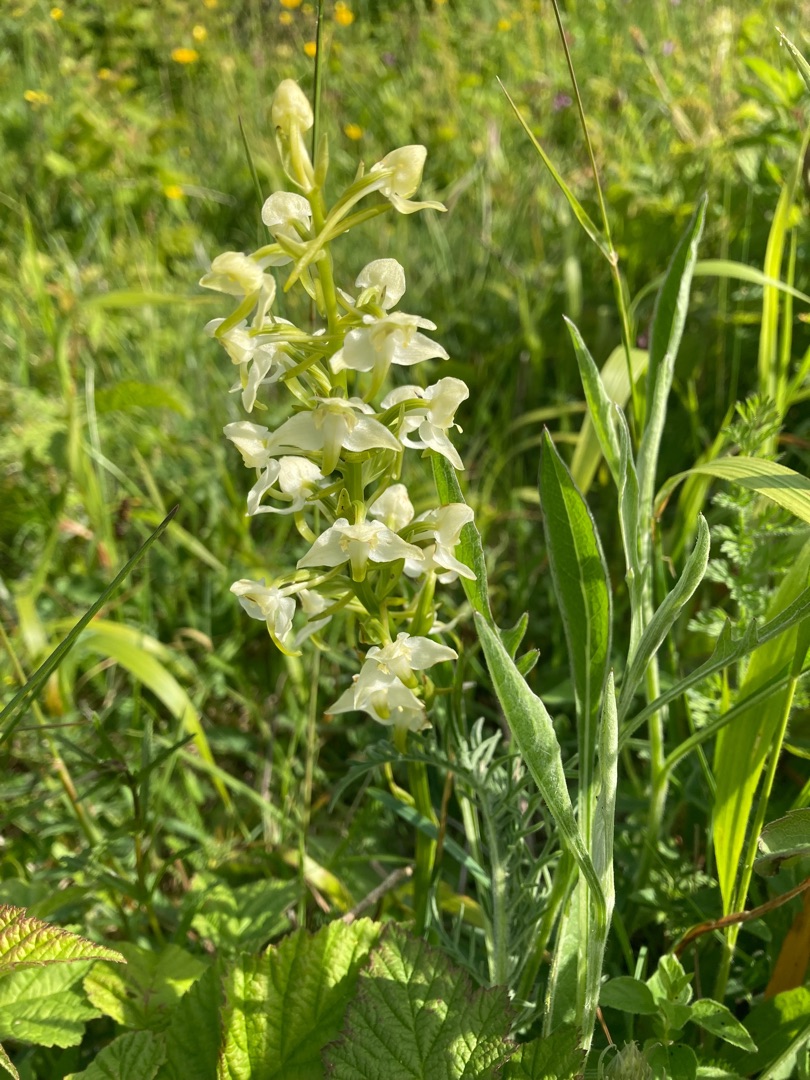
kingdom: Plantae
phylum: Tracheophyta
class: Liliopsida
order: Asparagales
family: Orchidaceae
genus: Platanthera
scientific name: Platanthera chlorantha
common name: Skov-gøgelilje
